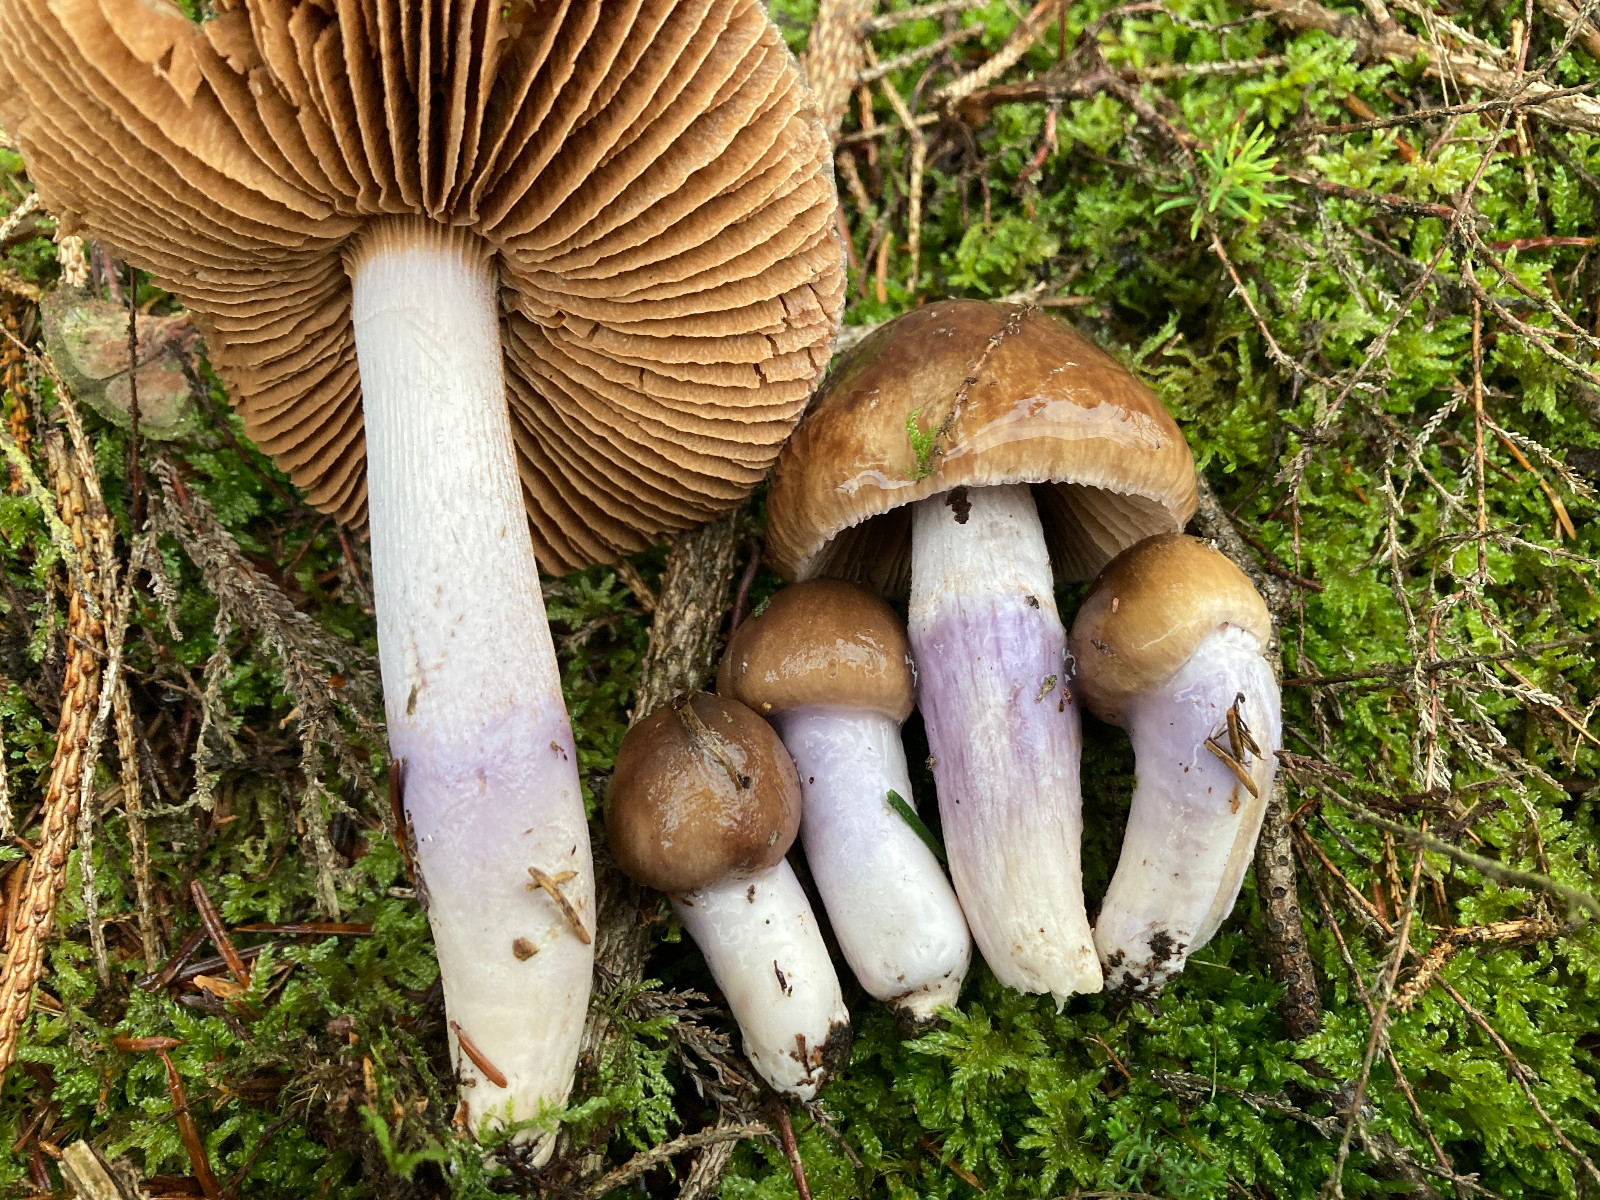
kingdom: Fungi
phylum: Basidiomycota
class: Agaricomycetes
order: Agaricales
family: Cortinariaceae
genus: Cortinarius
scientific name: Cortinarius elatior
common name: høj slørhat
